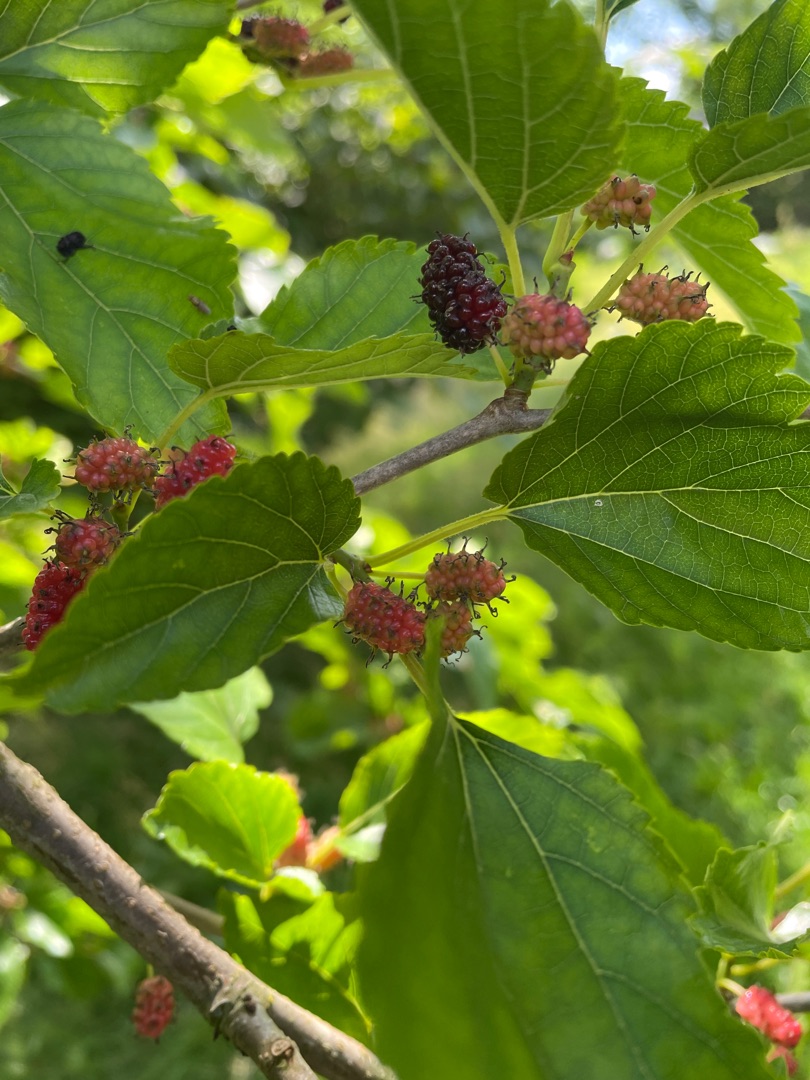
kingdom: Plantae
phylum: Tracheophyta
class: Magnoliopsida
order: Rosales
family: Moraceae
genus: Morus
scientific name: Morus nigra
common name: Sort morbær
